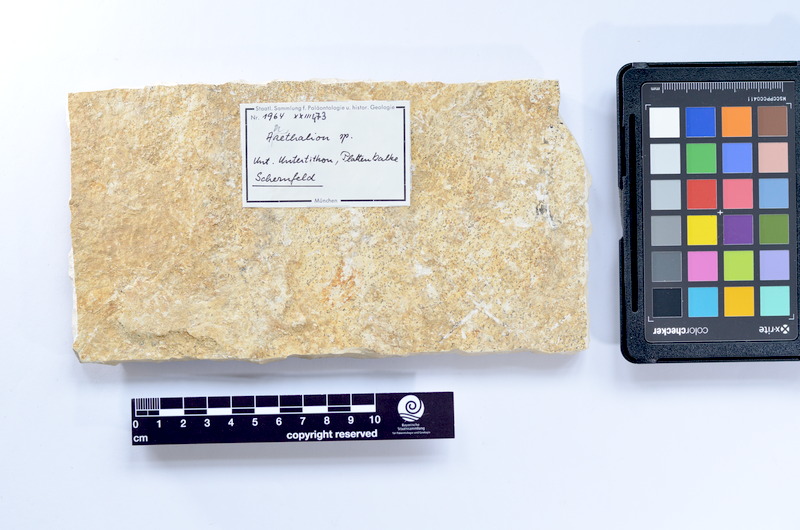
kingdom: Animalia
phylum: Chordata
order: Elopiformes
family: Anaethalionidae
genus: Anaethalion
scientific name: Anaethalion
